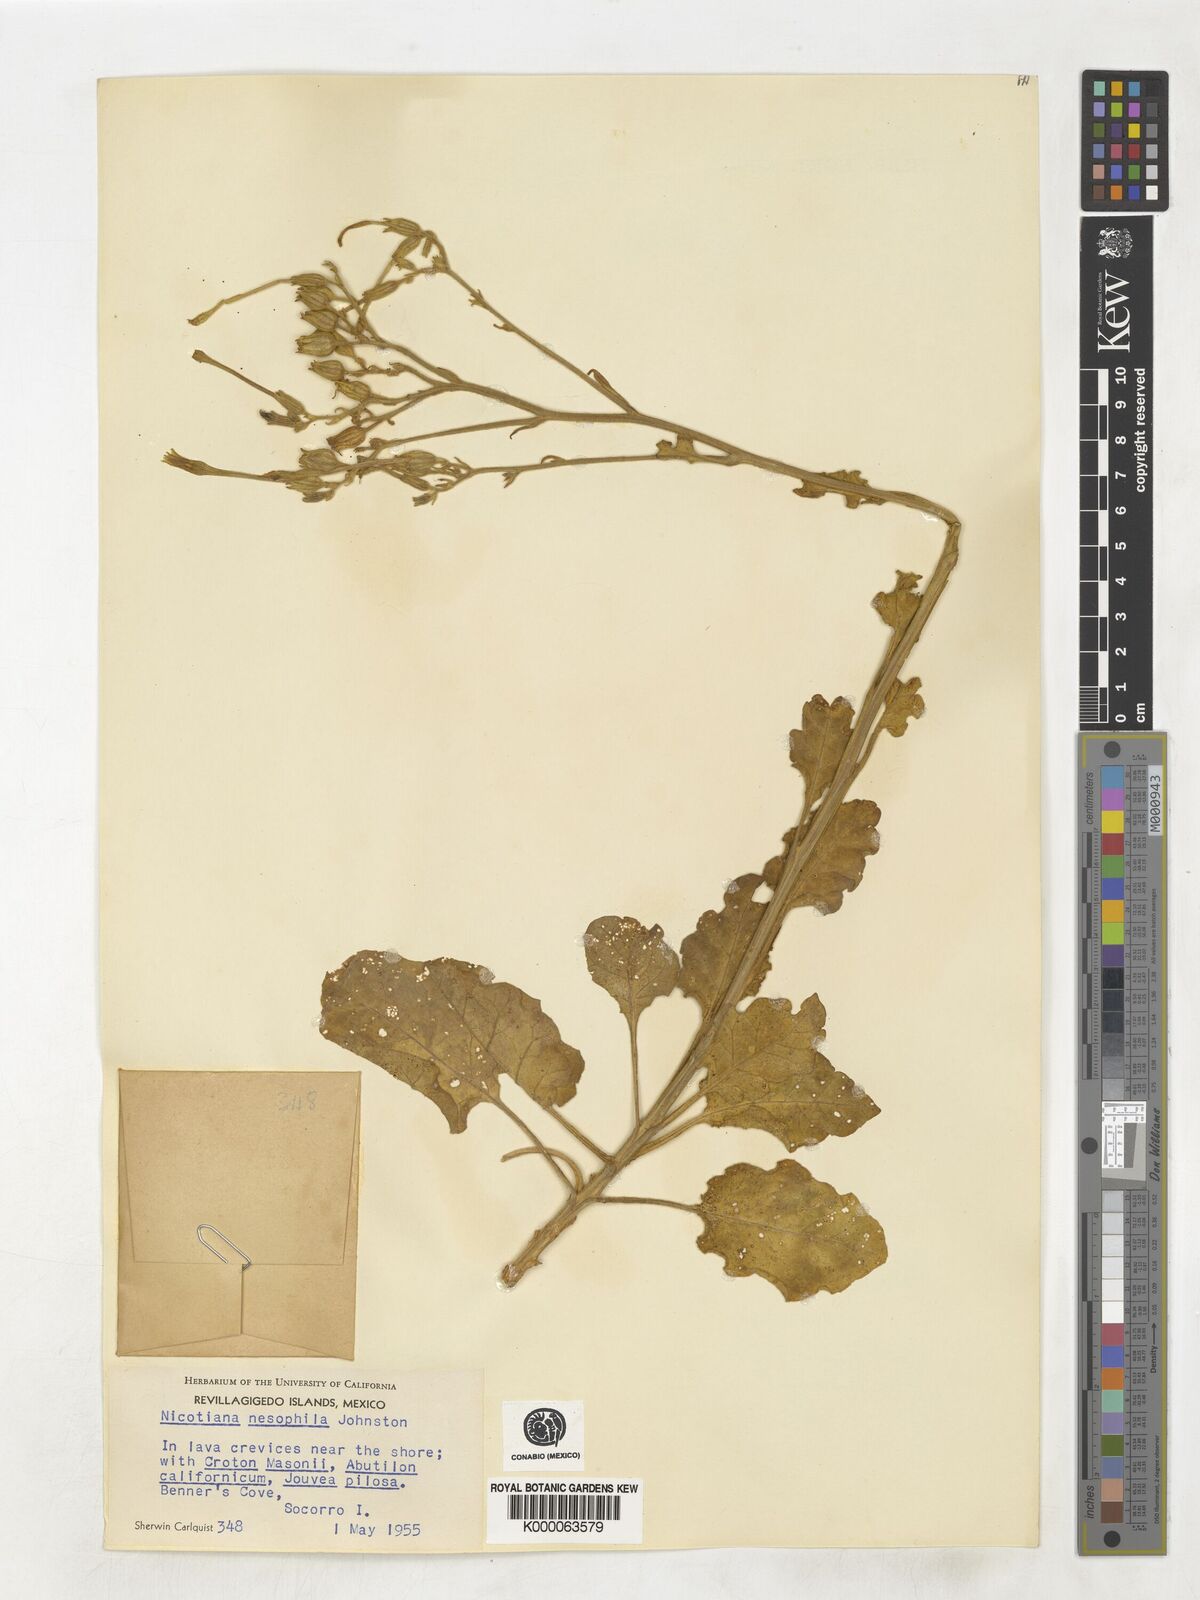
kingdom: Plantae
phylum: Tracheophyta
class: Magnoliopsida
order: Solanales
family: Solanaceae
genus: Nicotiana
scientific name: Nicotiana stocktonii
